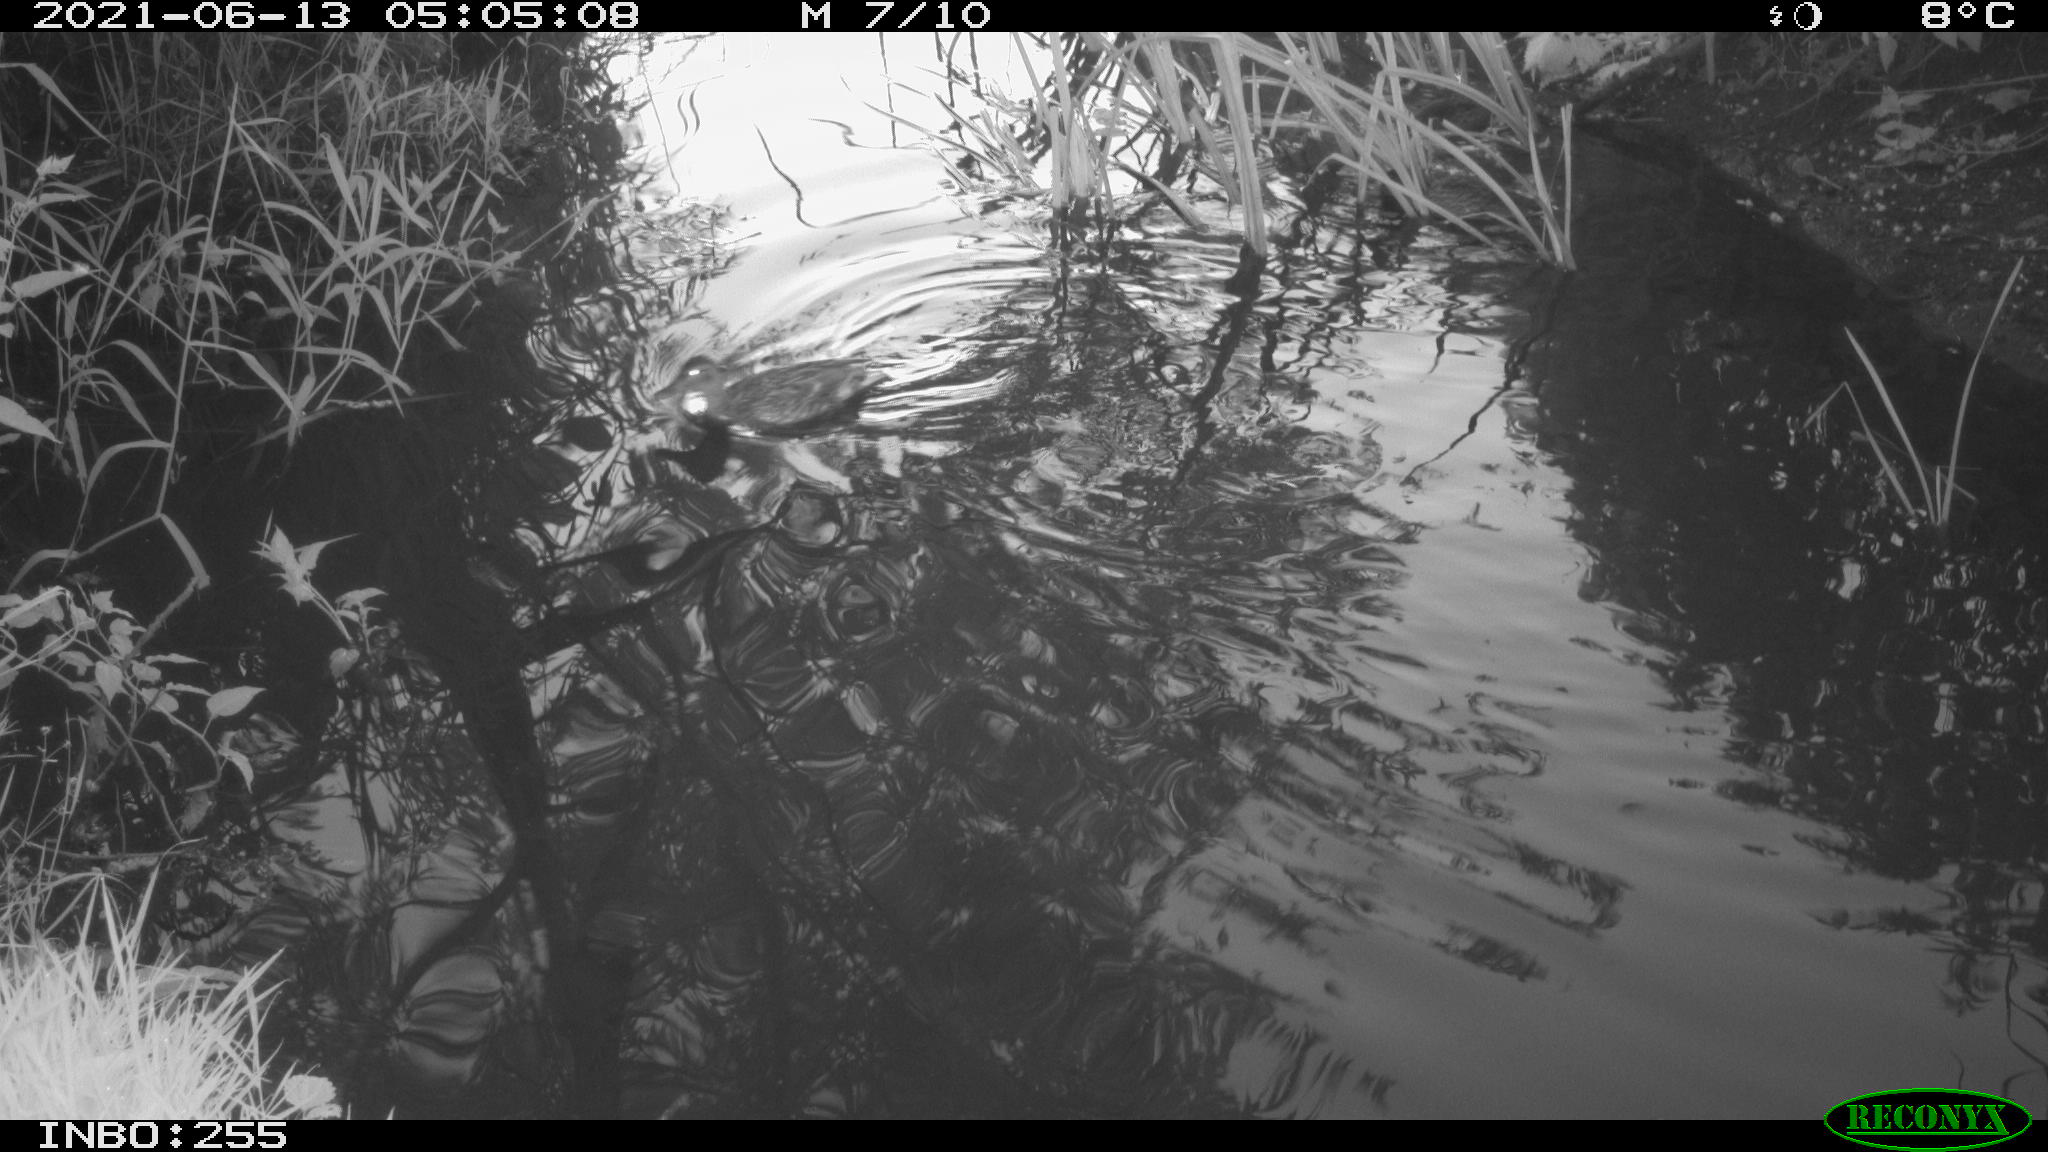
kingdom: Animalia
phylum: Chordata
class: Aves
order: Anseriformes
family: Anatidae
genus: Anas
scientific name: Anas
